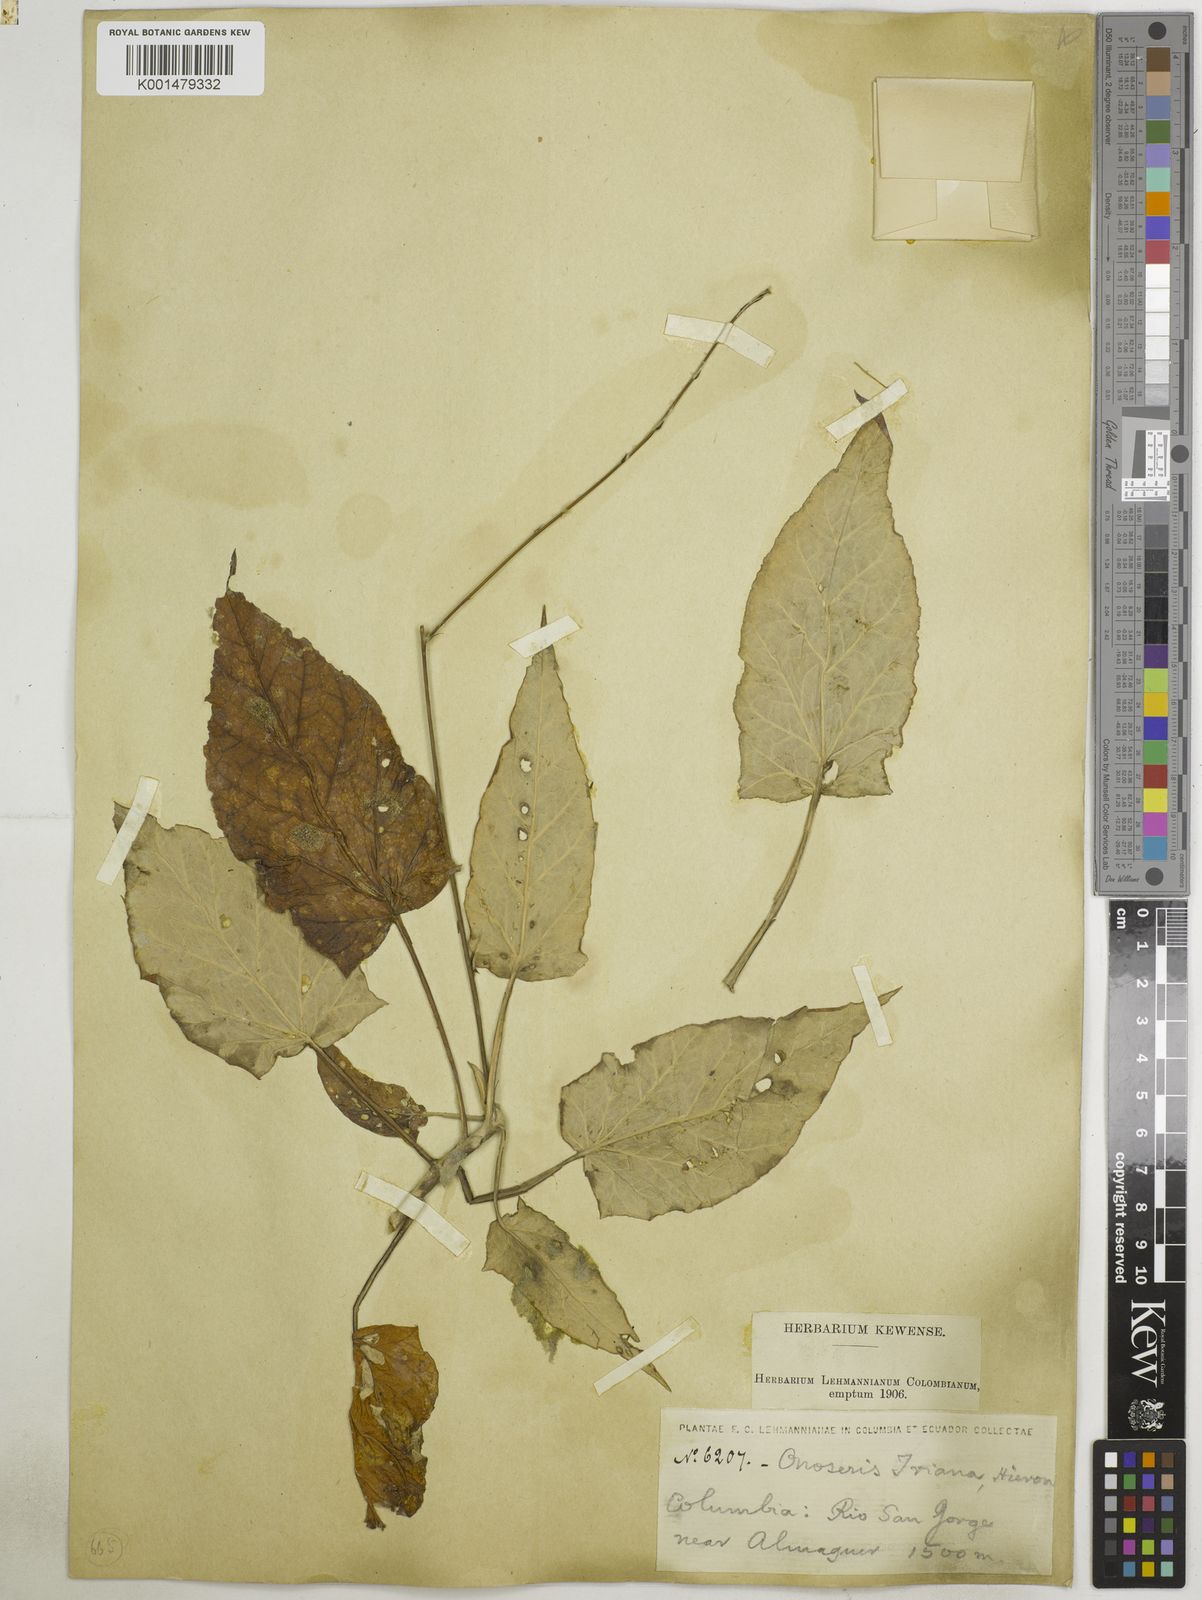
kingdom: Plantae
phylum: Tracheophyta
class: Magnoliopsida
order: Asterales
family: Asteraceae
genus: Onoseris
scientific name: Onoseris drakeana
